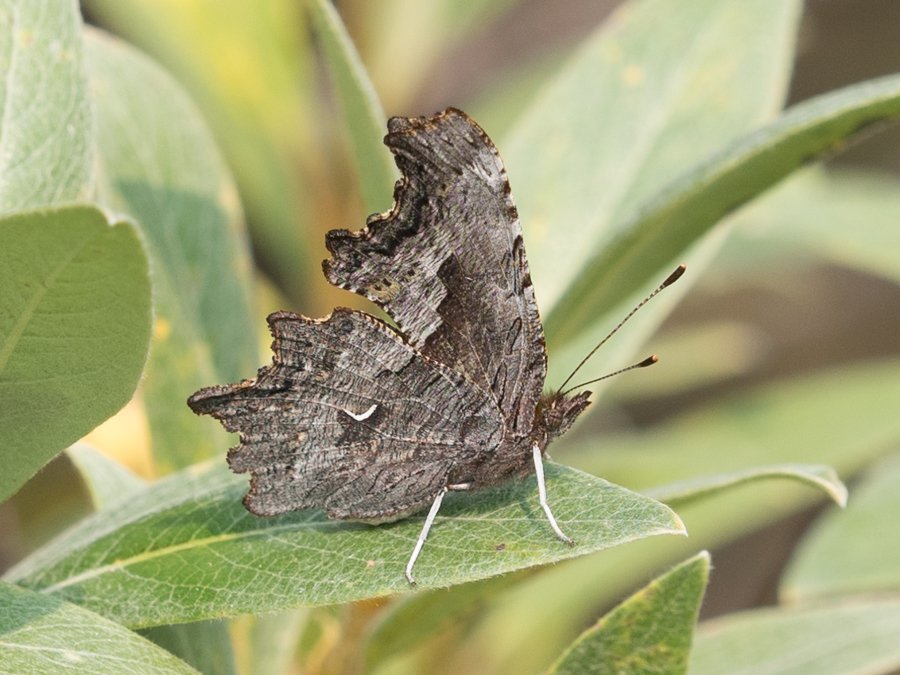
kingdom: Animalia
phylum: Arthropoda
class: Insecta
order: Lepidoptera
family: Nymphalidae
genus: Polygonia
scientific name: Polygonia gracilis
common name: Hoary Comma
